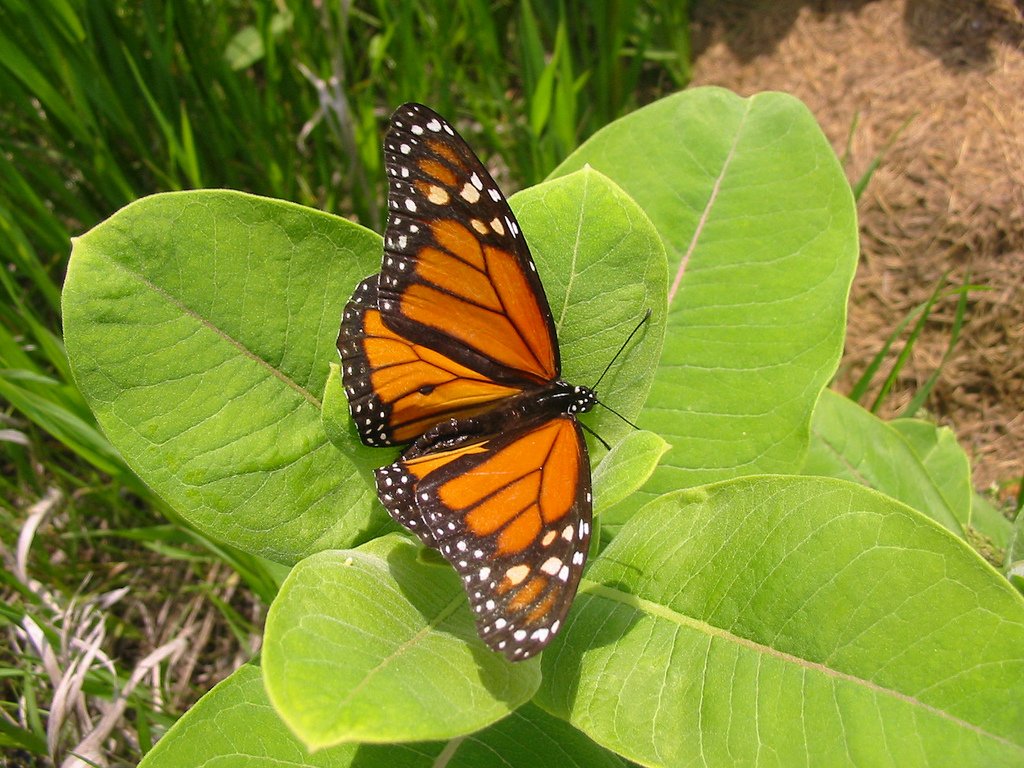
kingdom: Animalia
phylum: Arthropoda
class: Insecta
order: Lepidoptera
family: Nymphalidae
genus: Danaus
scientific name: Danaus plexippus
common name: Monarch
